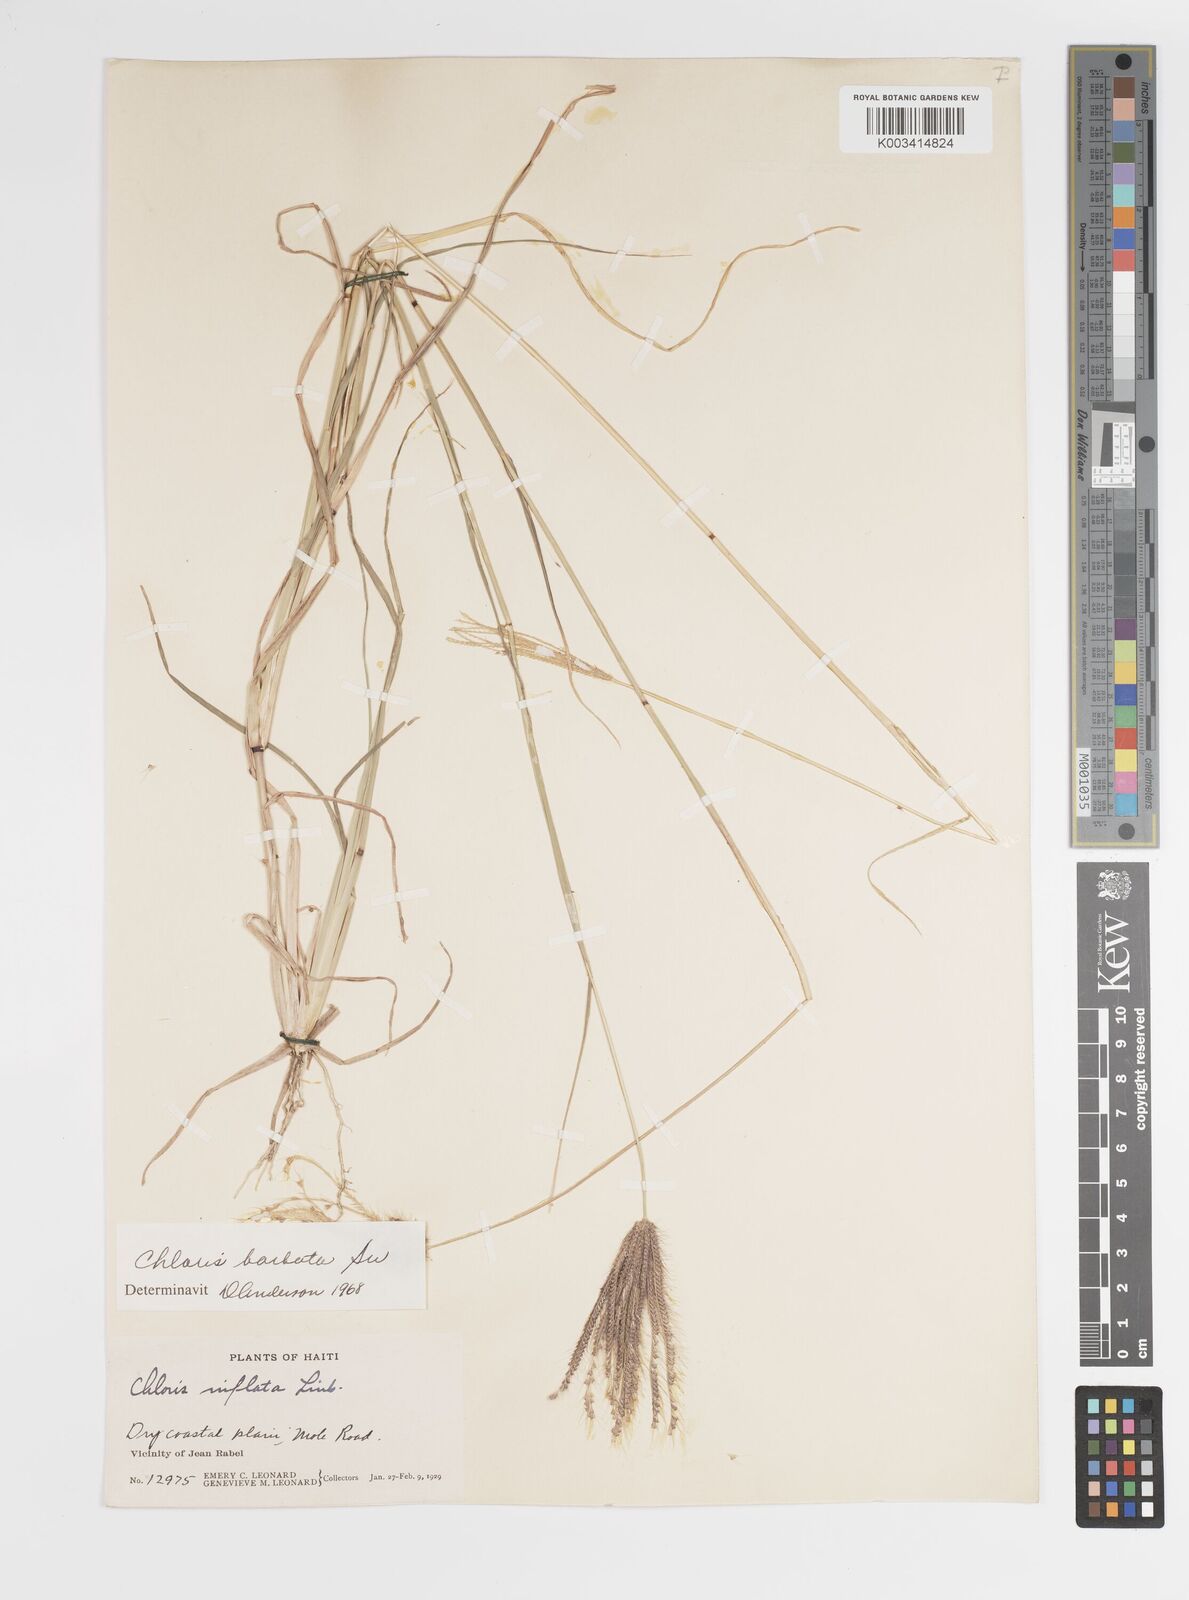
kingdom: Plantae
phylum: Tracheophyta
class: Liliopsida
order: Poales
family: Poaceae
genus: Chloris
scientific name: Chloris barbata
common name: Swollen fingergrass
